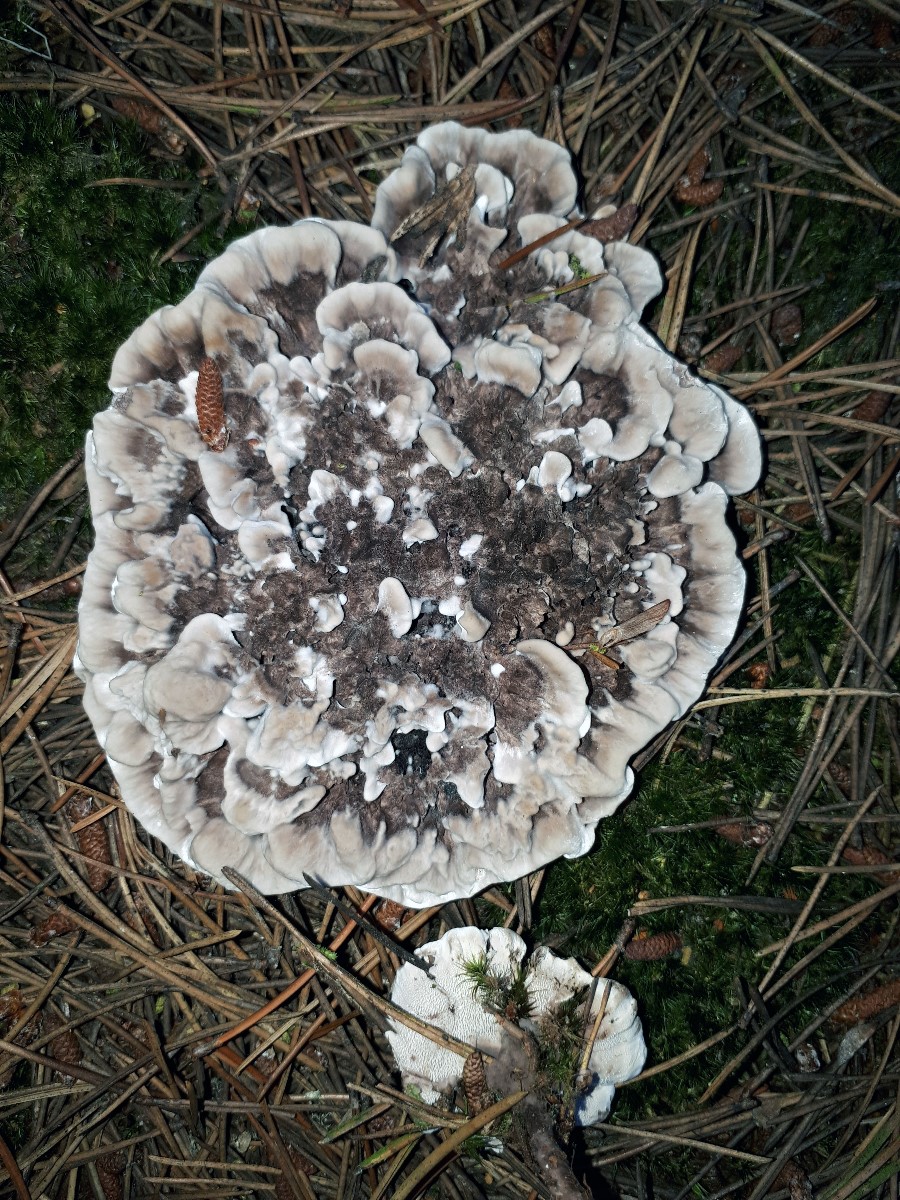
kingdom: Fungi
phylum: Basidiomycota
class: Agaricomycetes
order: Thelephorales
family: Thelephoraceae
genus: Phellodon
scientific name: Phellodon
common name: duftpigsvamp
